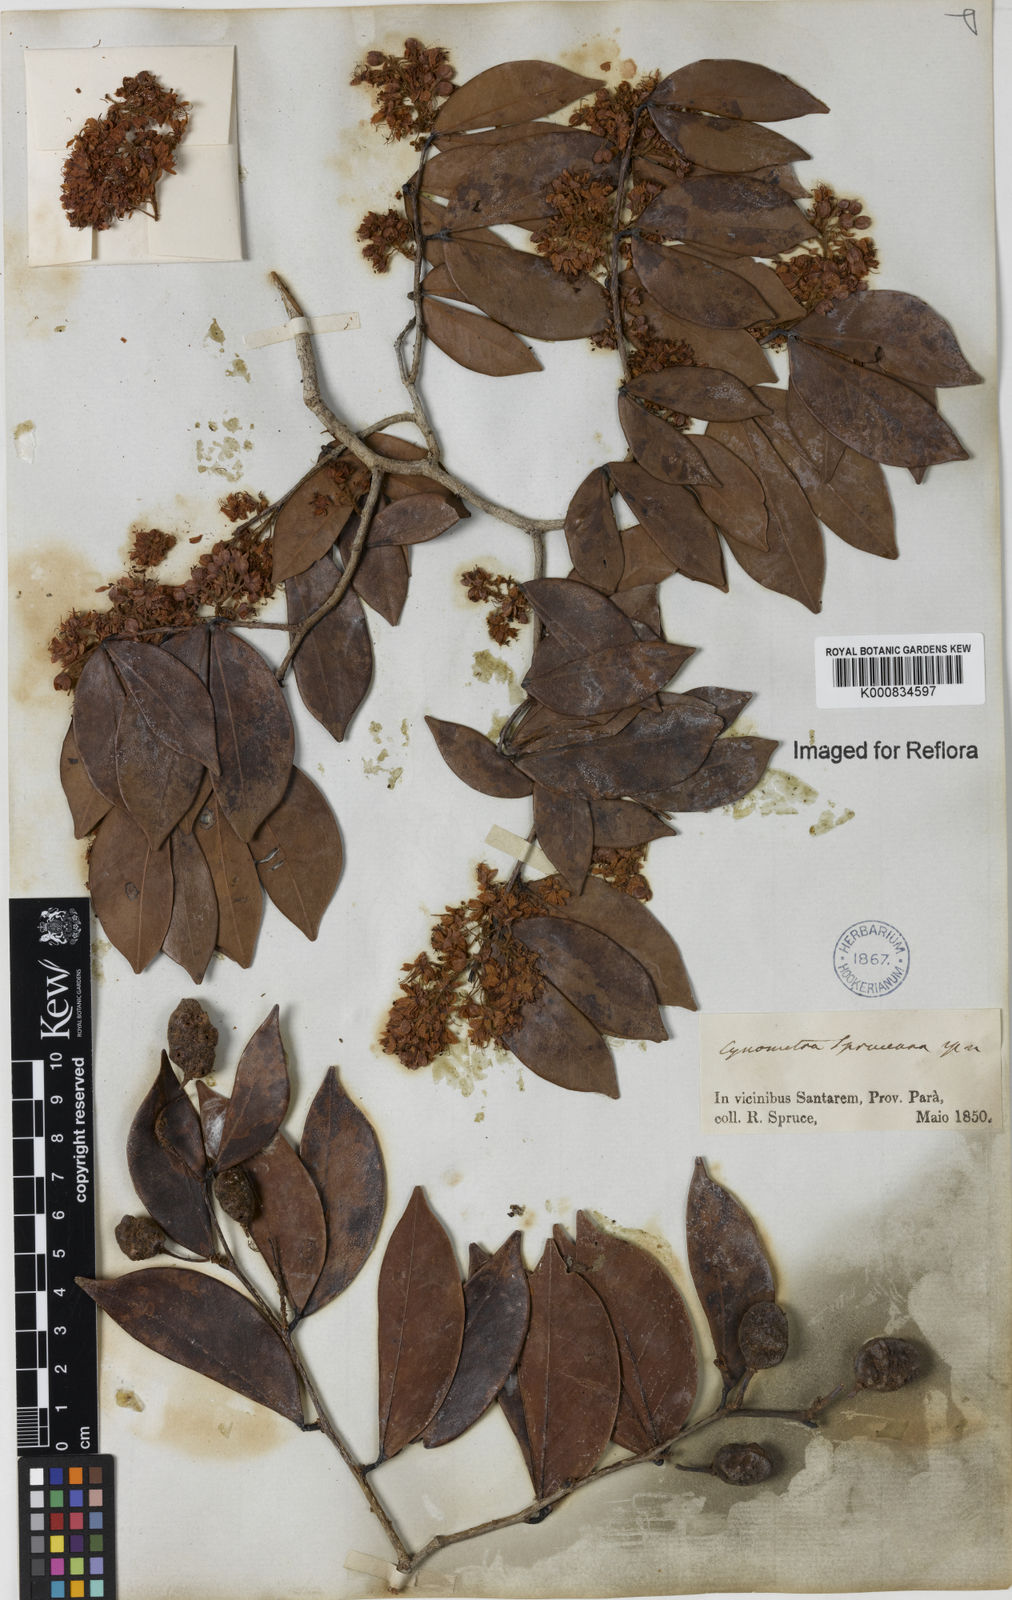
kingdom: Plantae
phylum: Tracheophyta
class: Magnoliopsida
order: Fabales
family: Fabaceae
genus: Cynometra
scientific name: Cynometra phaselocarpa
